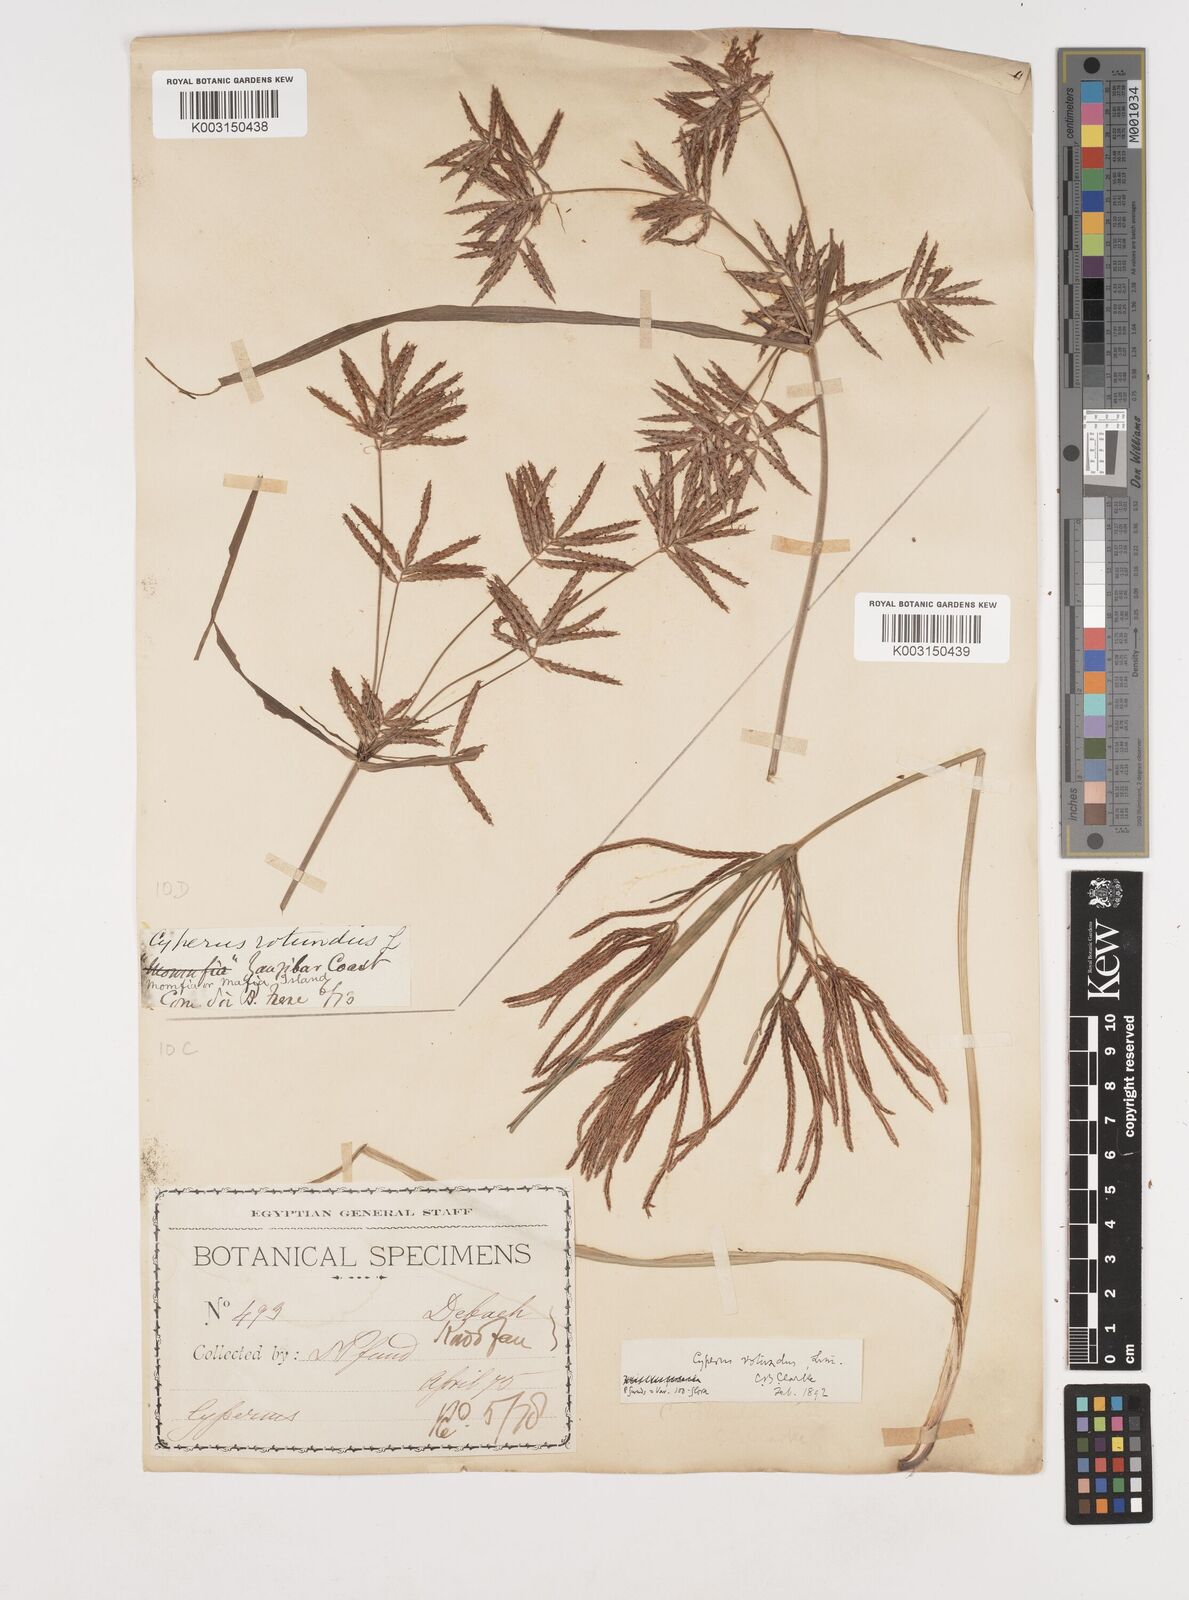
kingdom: Plantae
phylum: Tracheophyta
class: Liliopsida
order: Poales
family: Cyperaceae
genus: Cyperus
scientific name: Cyperus rotundus
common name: Nutgrass
